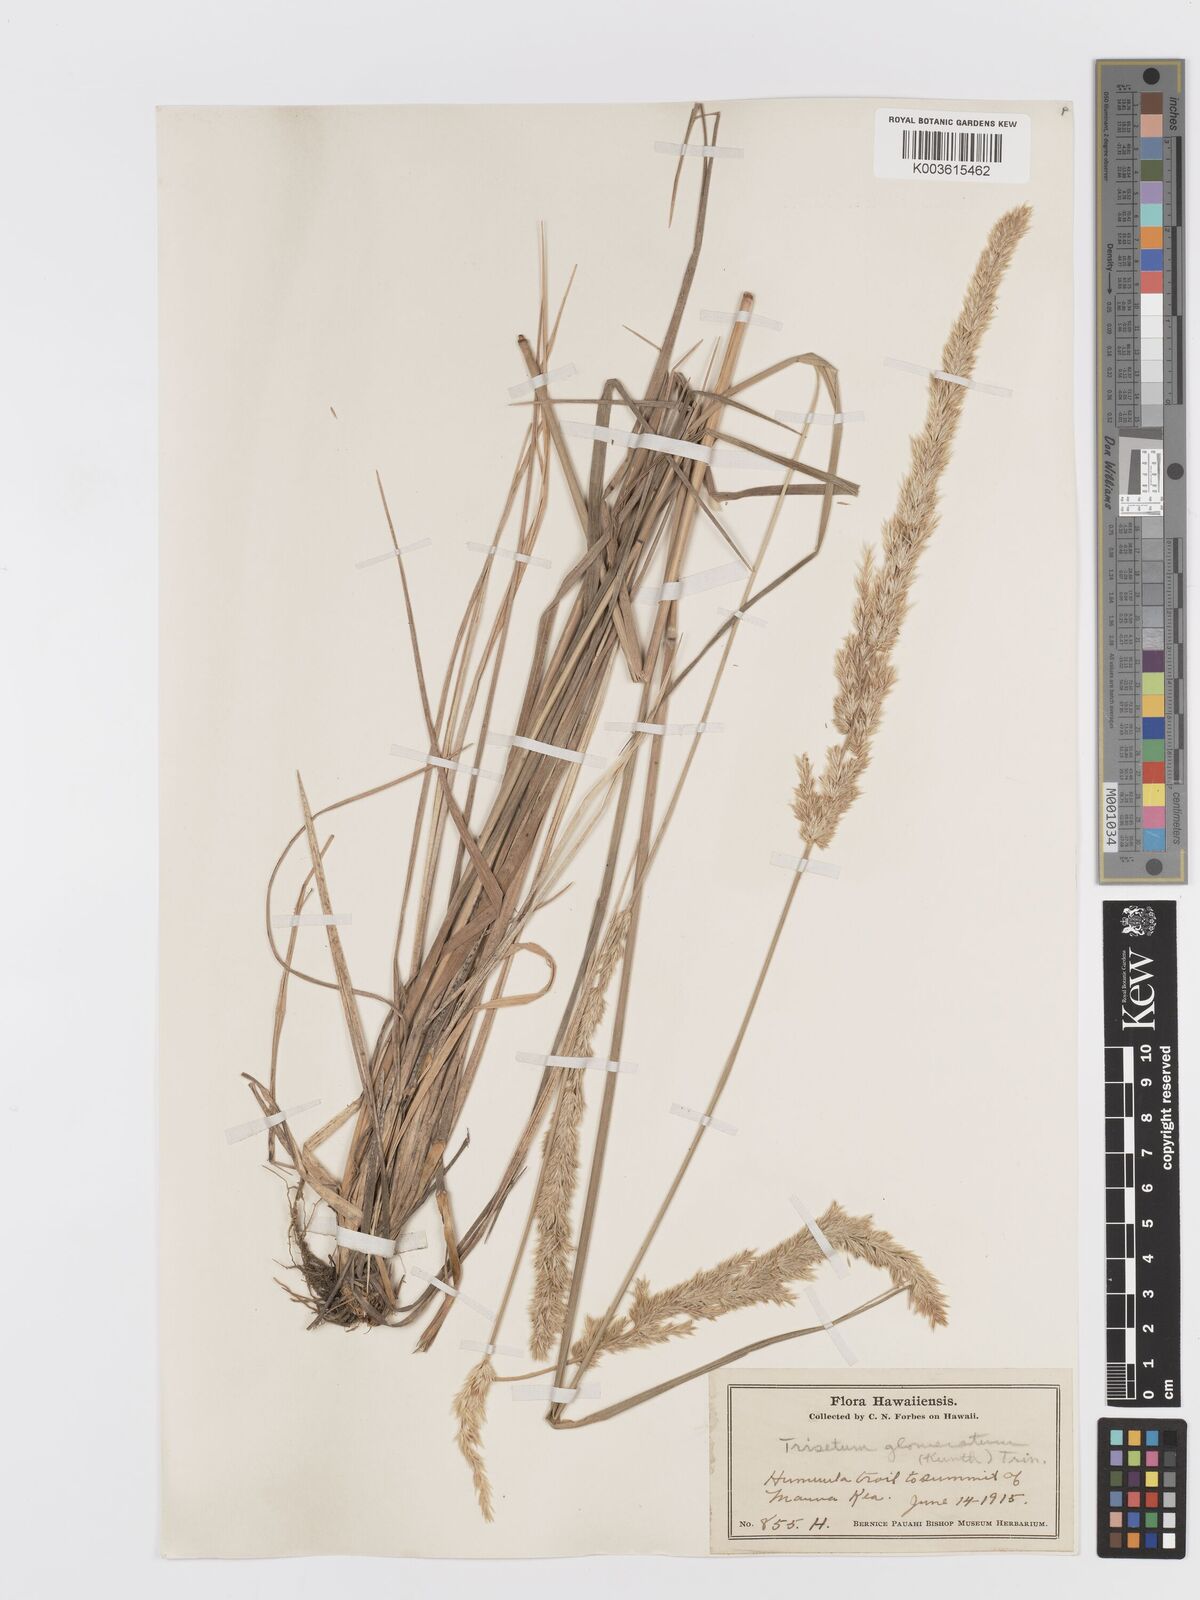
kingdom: Plantae
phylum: Tracheophyta
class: Liliopsida
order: Poales
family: Poaceae
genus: Trisetum
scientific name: Trisetum glomeratum
